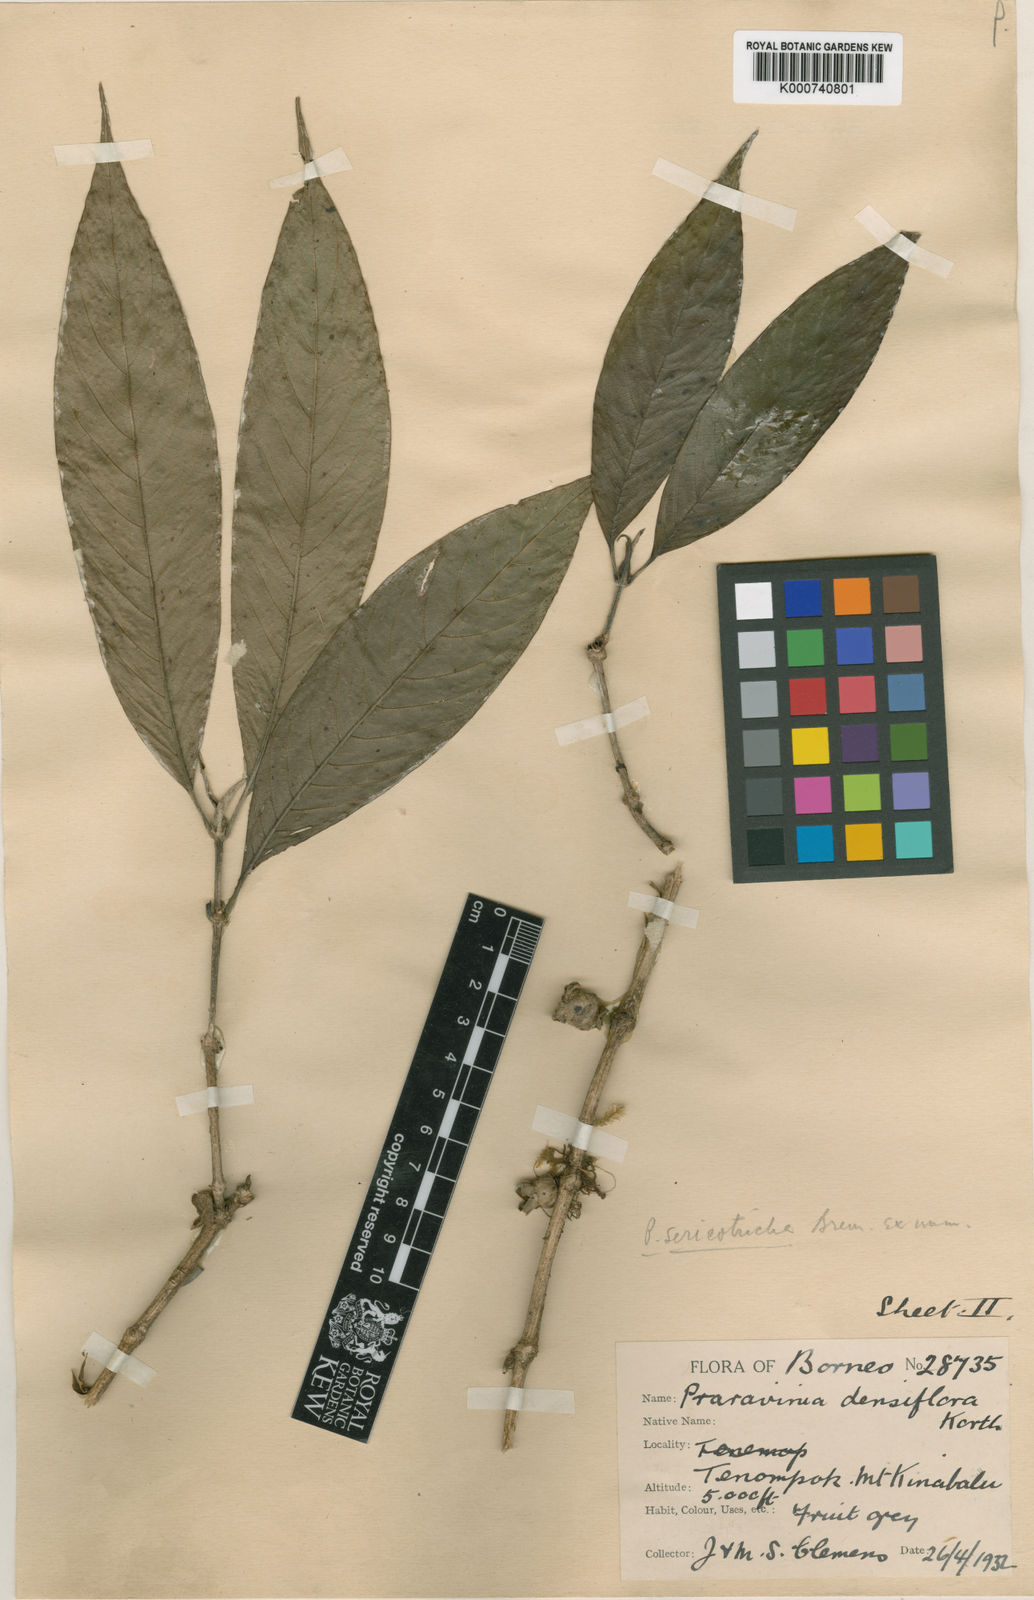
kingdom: Plantae
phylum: Tracheophyta
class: Magnoliopsida
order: Gentianales
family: Rubiaceae
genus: Praravinia
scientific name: Praravinia sericotricha
